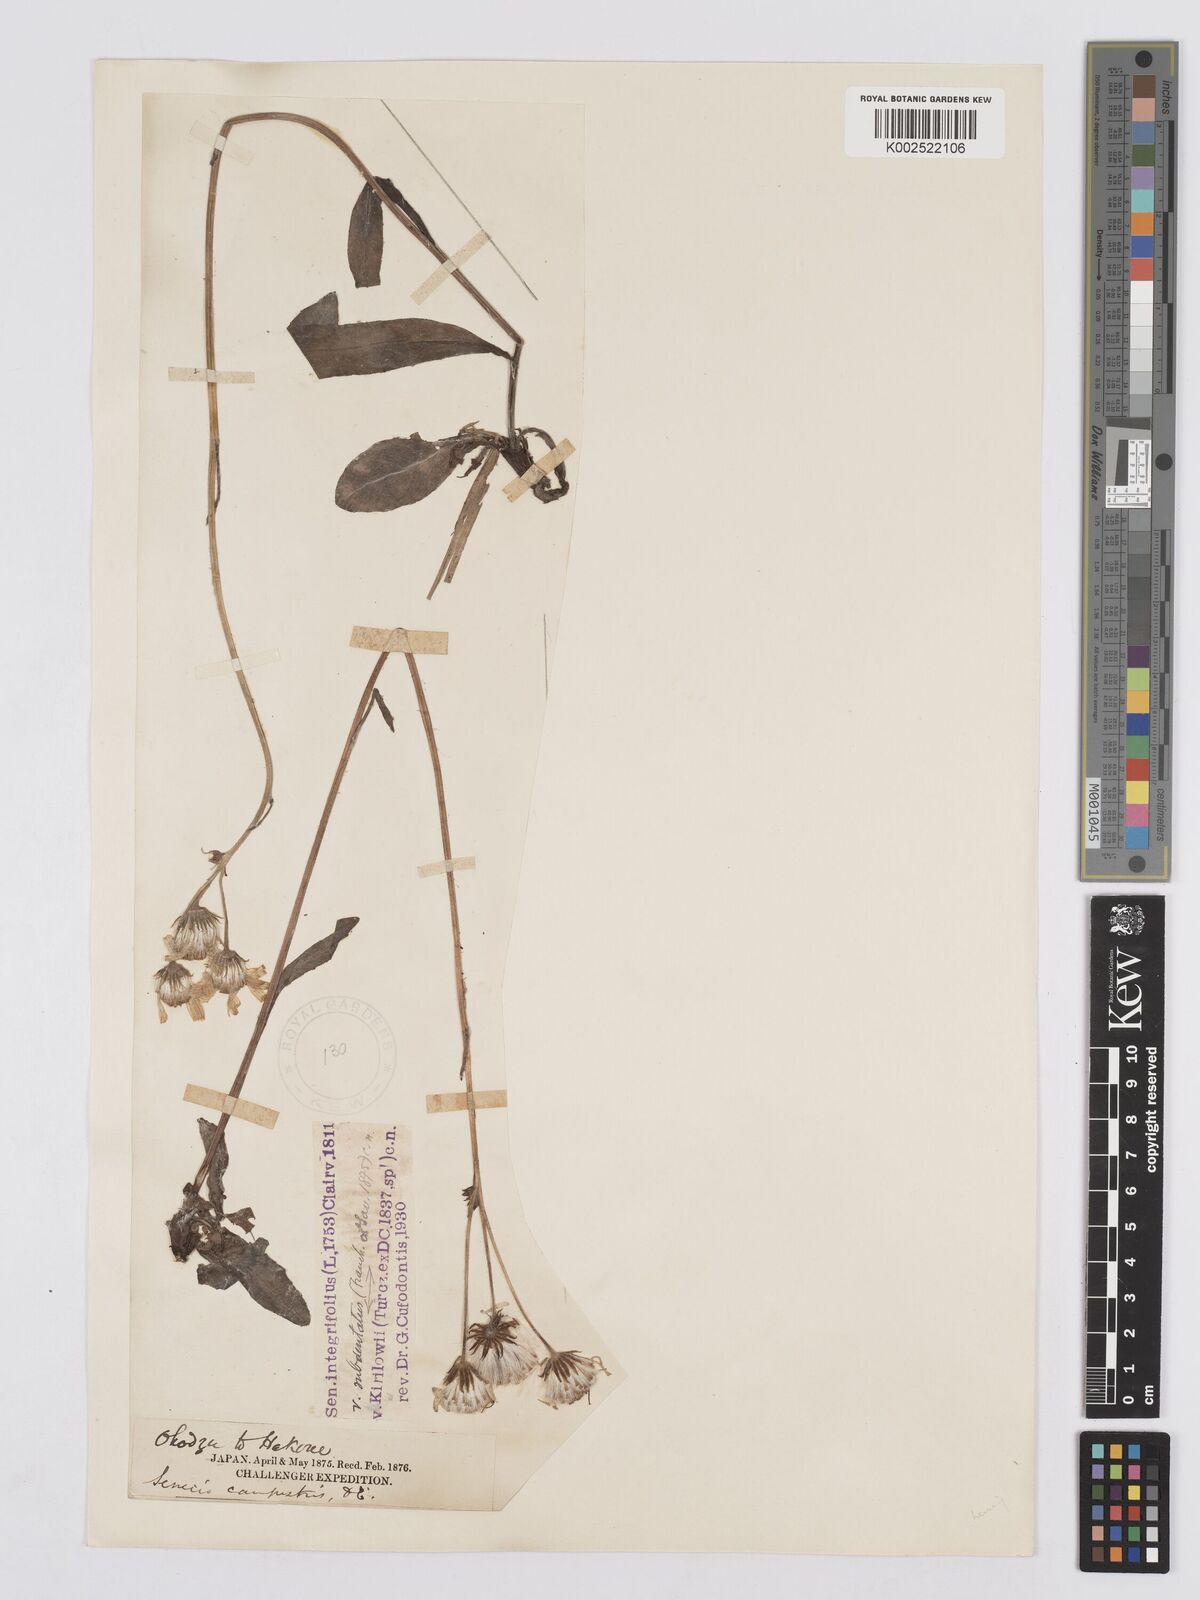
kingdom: Plantae
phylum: Tracheophyta
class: Magnoliopsida
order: Asterales
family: Asteraceae
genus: Tephroseris
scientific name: Tephroseris kirilowii
